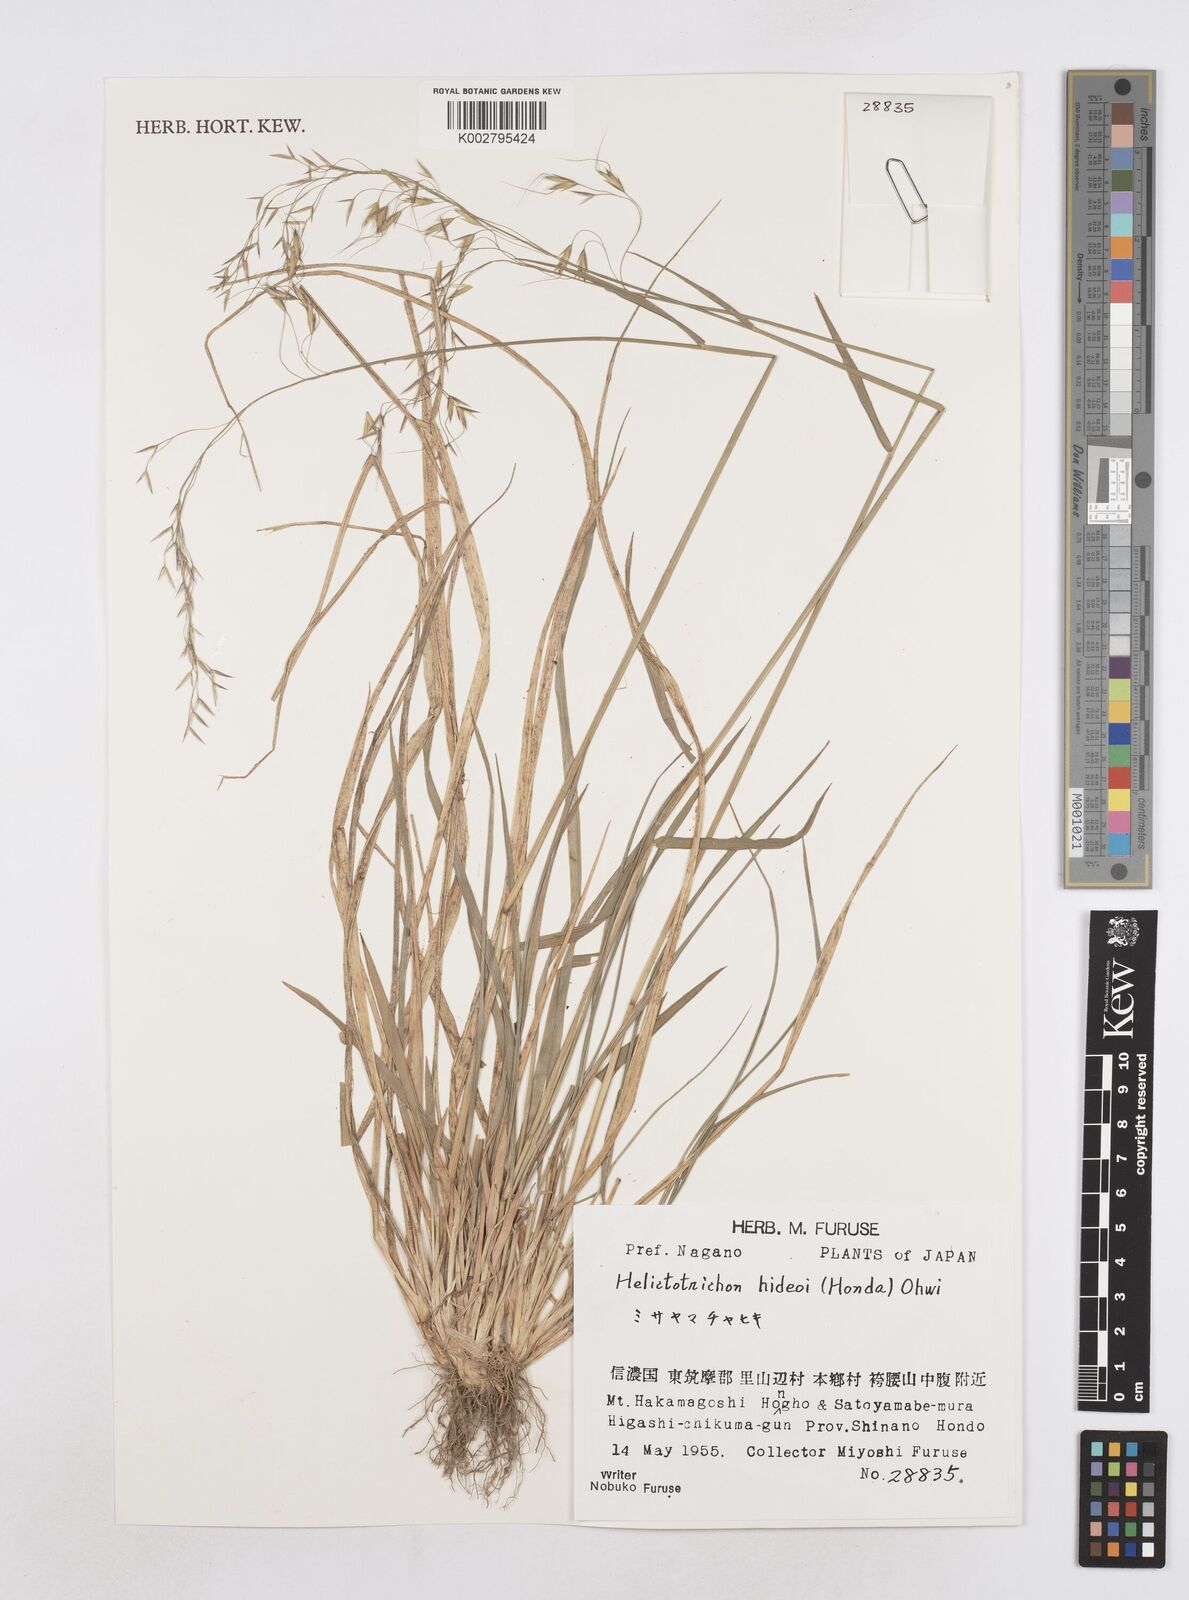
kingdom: Plantae
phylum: Tracheophyta
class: Liliopsida
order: Poales
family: Poaceae
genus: Helictotrichon
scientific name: Helictotrichon hideoi
